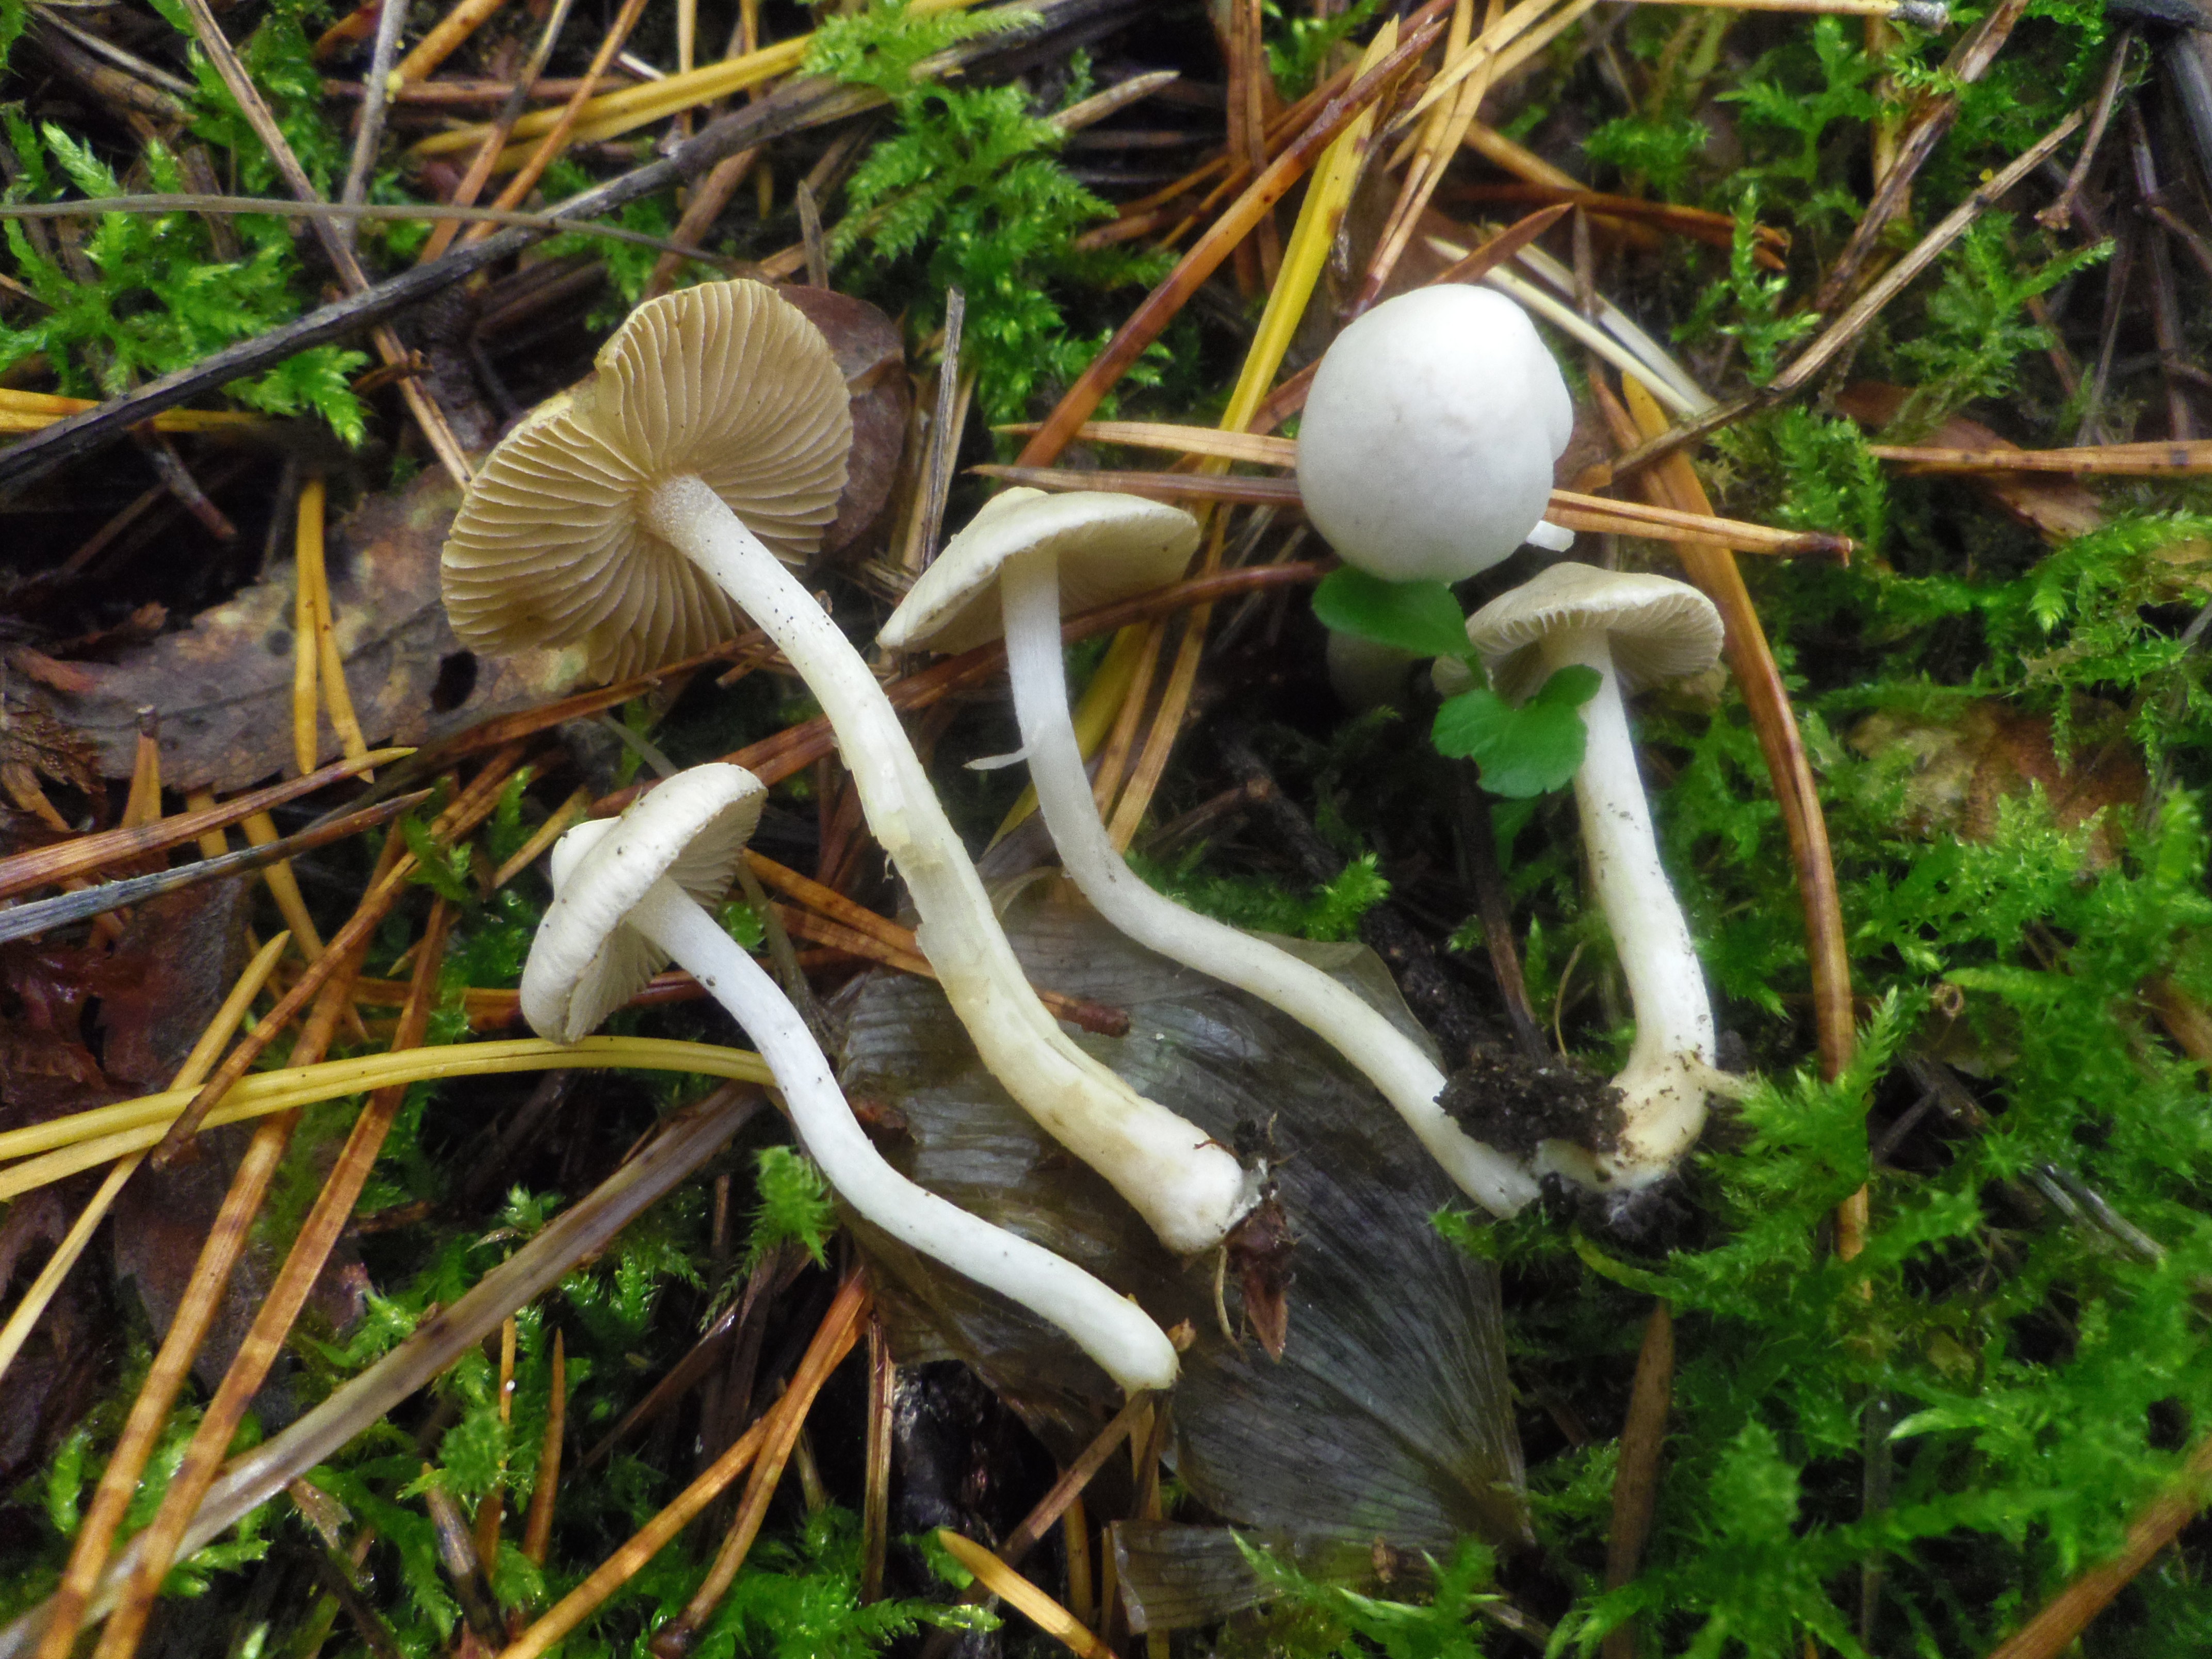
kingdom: Fungi
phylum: Basidiomycota
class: Agaricomycetes
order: Agaricales
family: Inocybaceae
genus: Inocybe
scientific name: Inocybe geophylla
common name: White fibrecap
